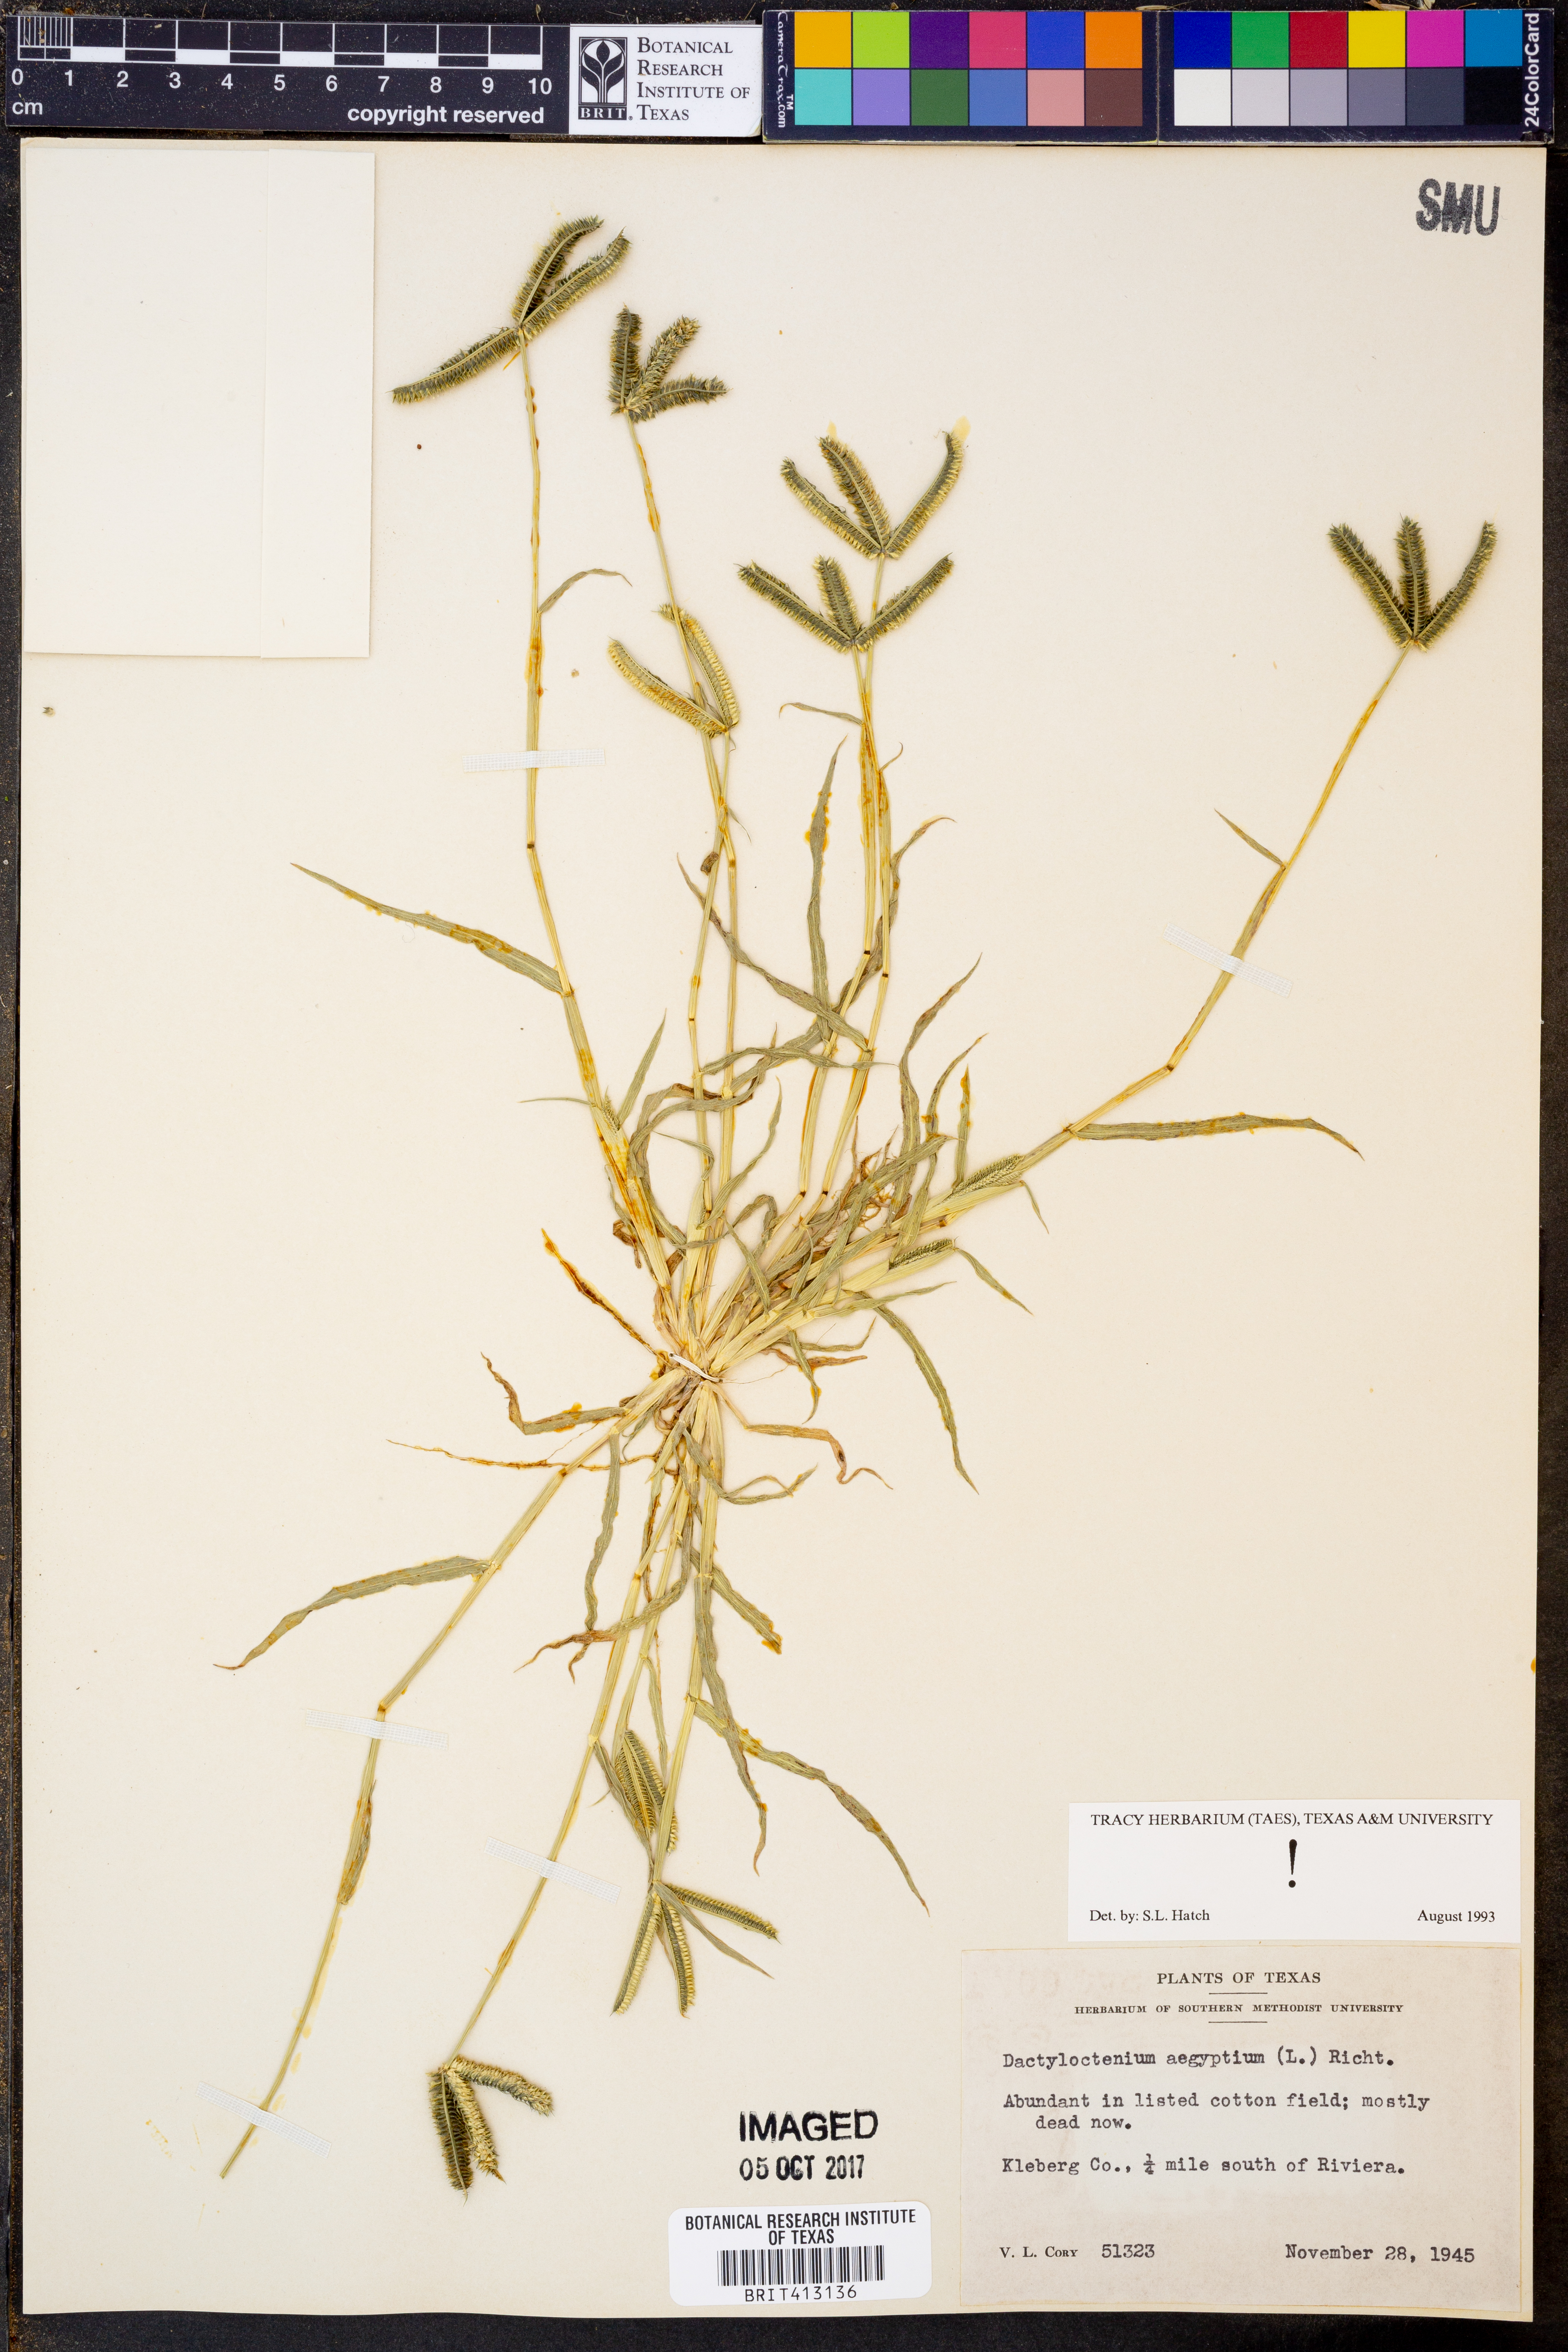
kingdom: Plantae
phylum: Tracheophyta
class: Liliopsida
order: Poales
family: Poaceae
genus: Dactyloctenium
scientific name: Dactyloctenium aegyptium
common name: Egyptian grass
